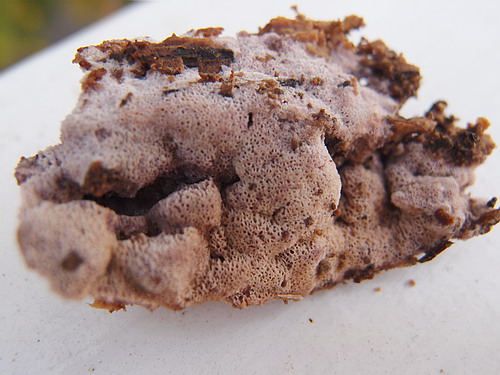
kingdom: Fungi
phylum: Basidiomycota
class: Agaricomycetes
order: Polyporales
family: Irpicaceae
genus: Ceriporia
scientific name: Ceriporia excelsa
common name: lilla voksporesvamp
